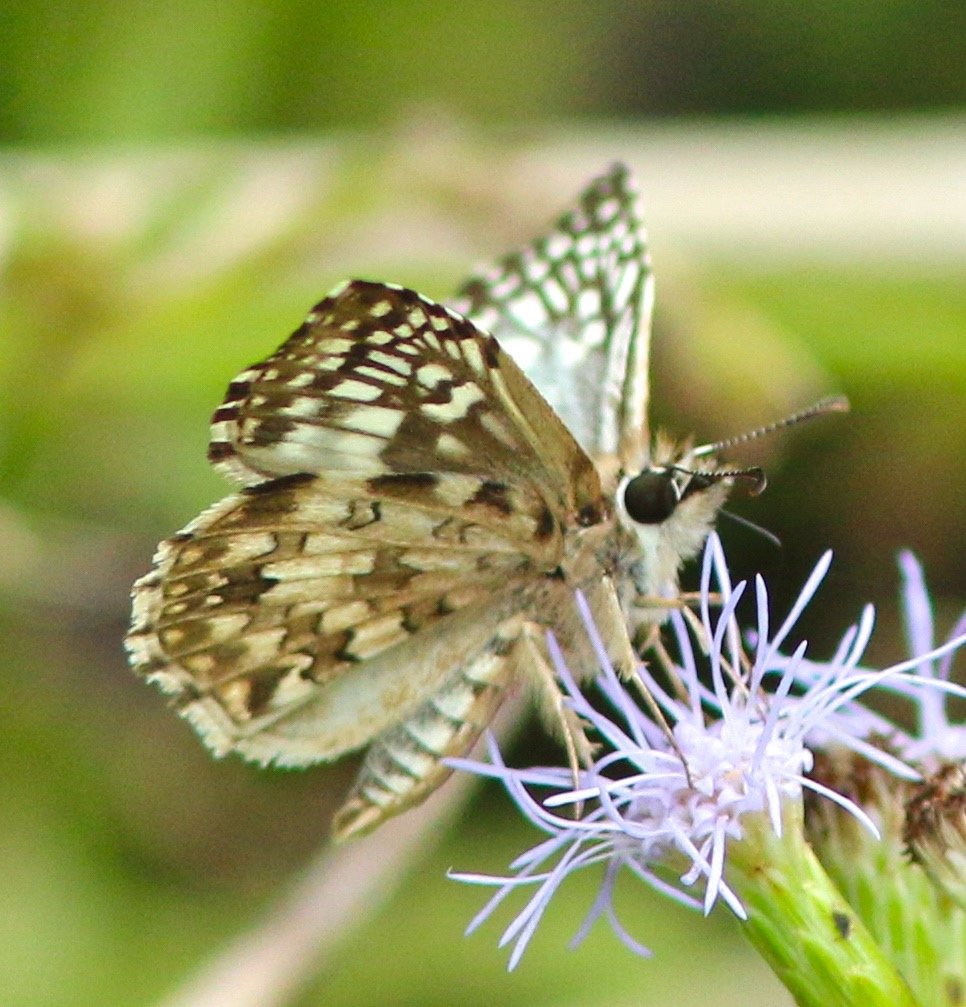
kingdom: Animalia
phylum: Arthropoda
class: Insecta
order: Lepidoptera
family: Hesperiidae
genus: Pyrgus
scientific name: Pyrgus oileus
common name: Tropical Checkered-Skipper
